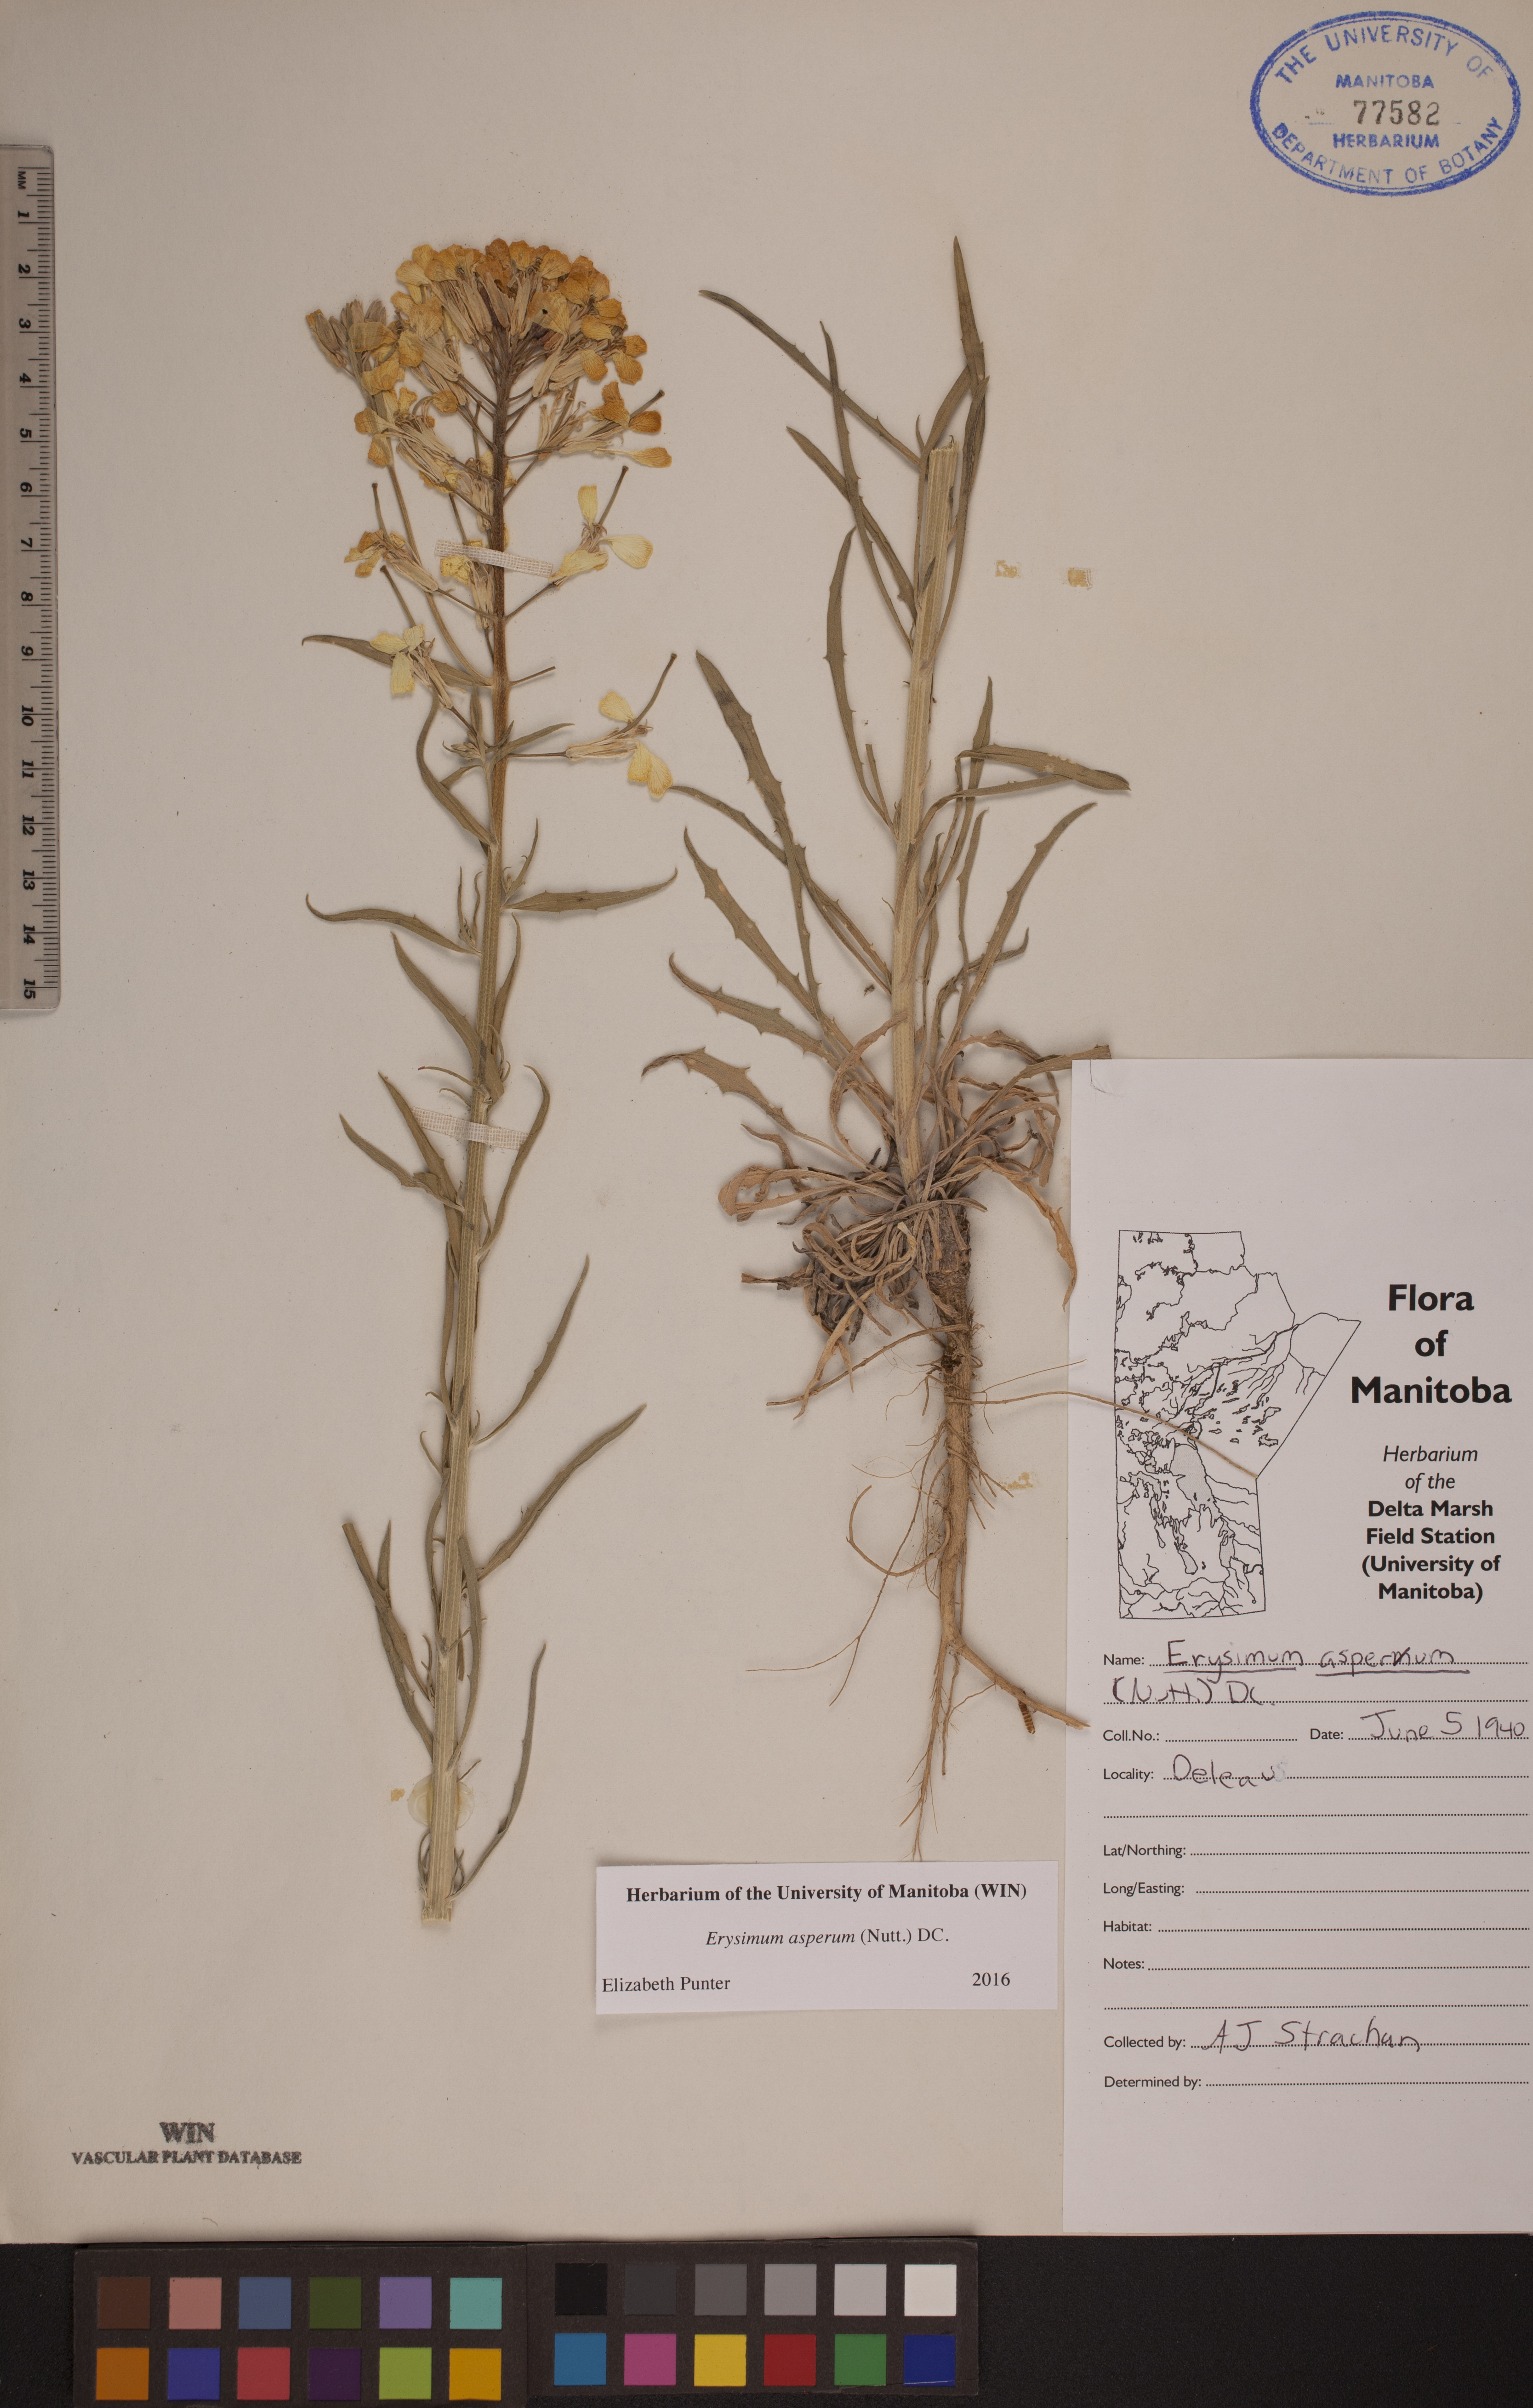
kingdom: Plantae
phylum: Tracheophyta
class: Magnoliopsida
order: Brassicales
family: Brassicaceae
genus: Erysimum
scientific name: Erysimum asperum
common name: Western wallflower
